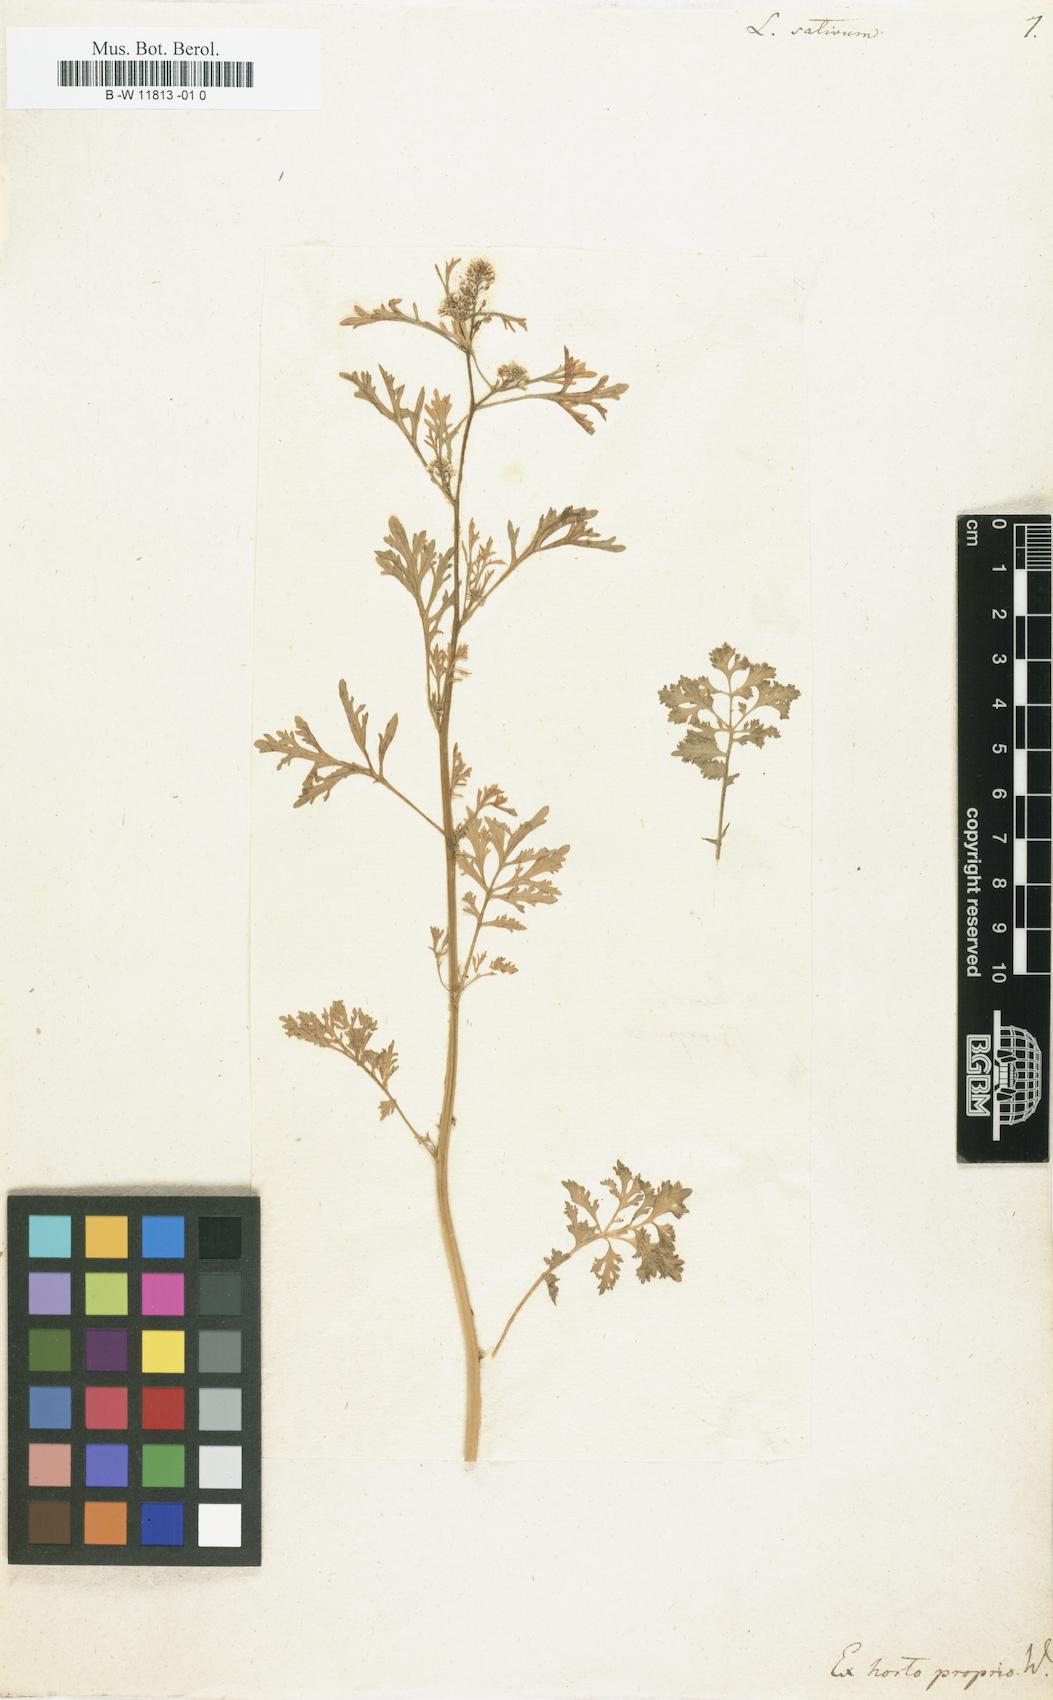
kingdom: Plantae
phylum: Tracheophyta
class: Magnoliopsida
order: Brassicales
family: Brassicaceae
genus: Lepidium
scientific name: Lepidium sativum
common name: Garden cress
